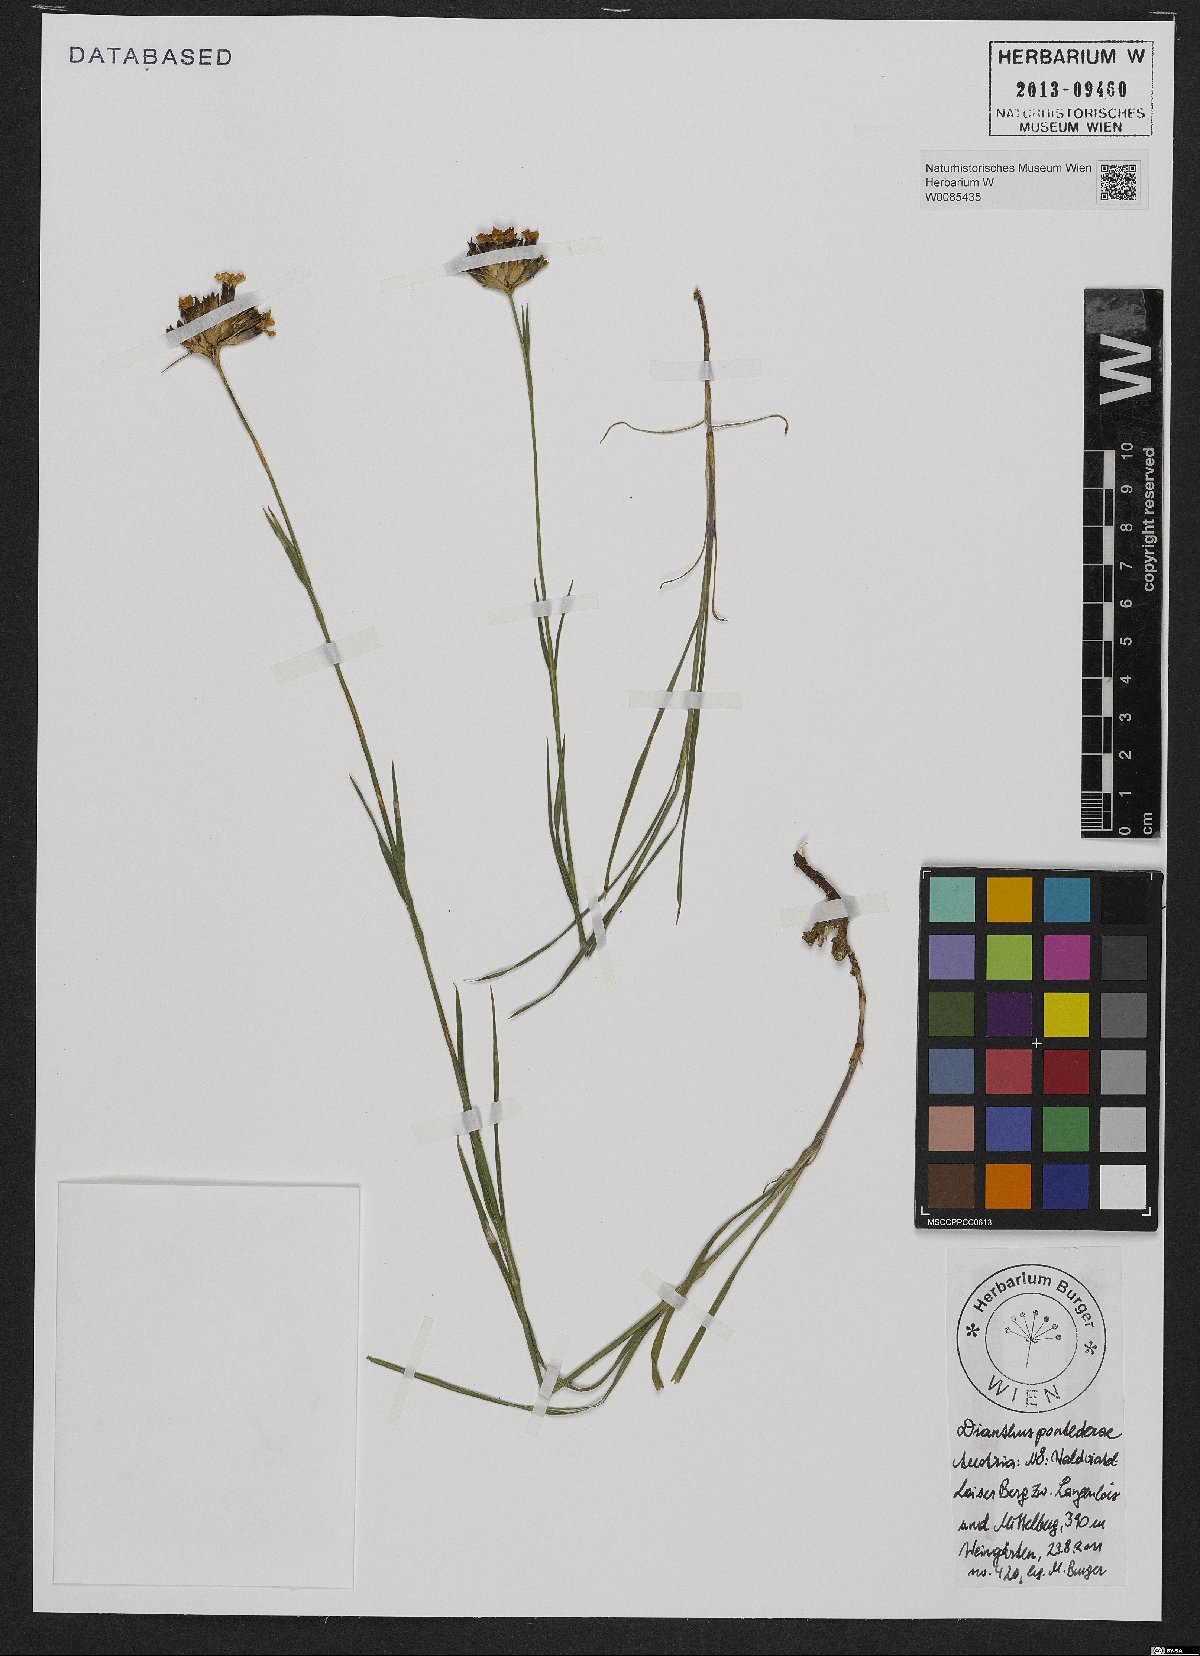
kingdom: Plantae
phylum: Tracheophyta
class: Magnoliopsida
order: Caryophyllales
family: Caryophyllaceae
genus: Dianthus
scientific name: Dianthus pontederae
